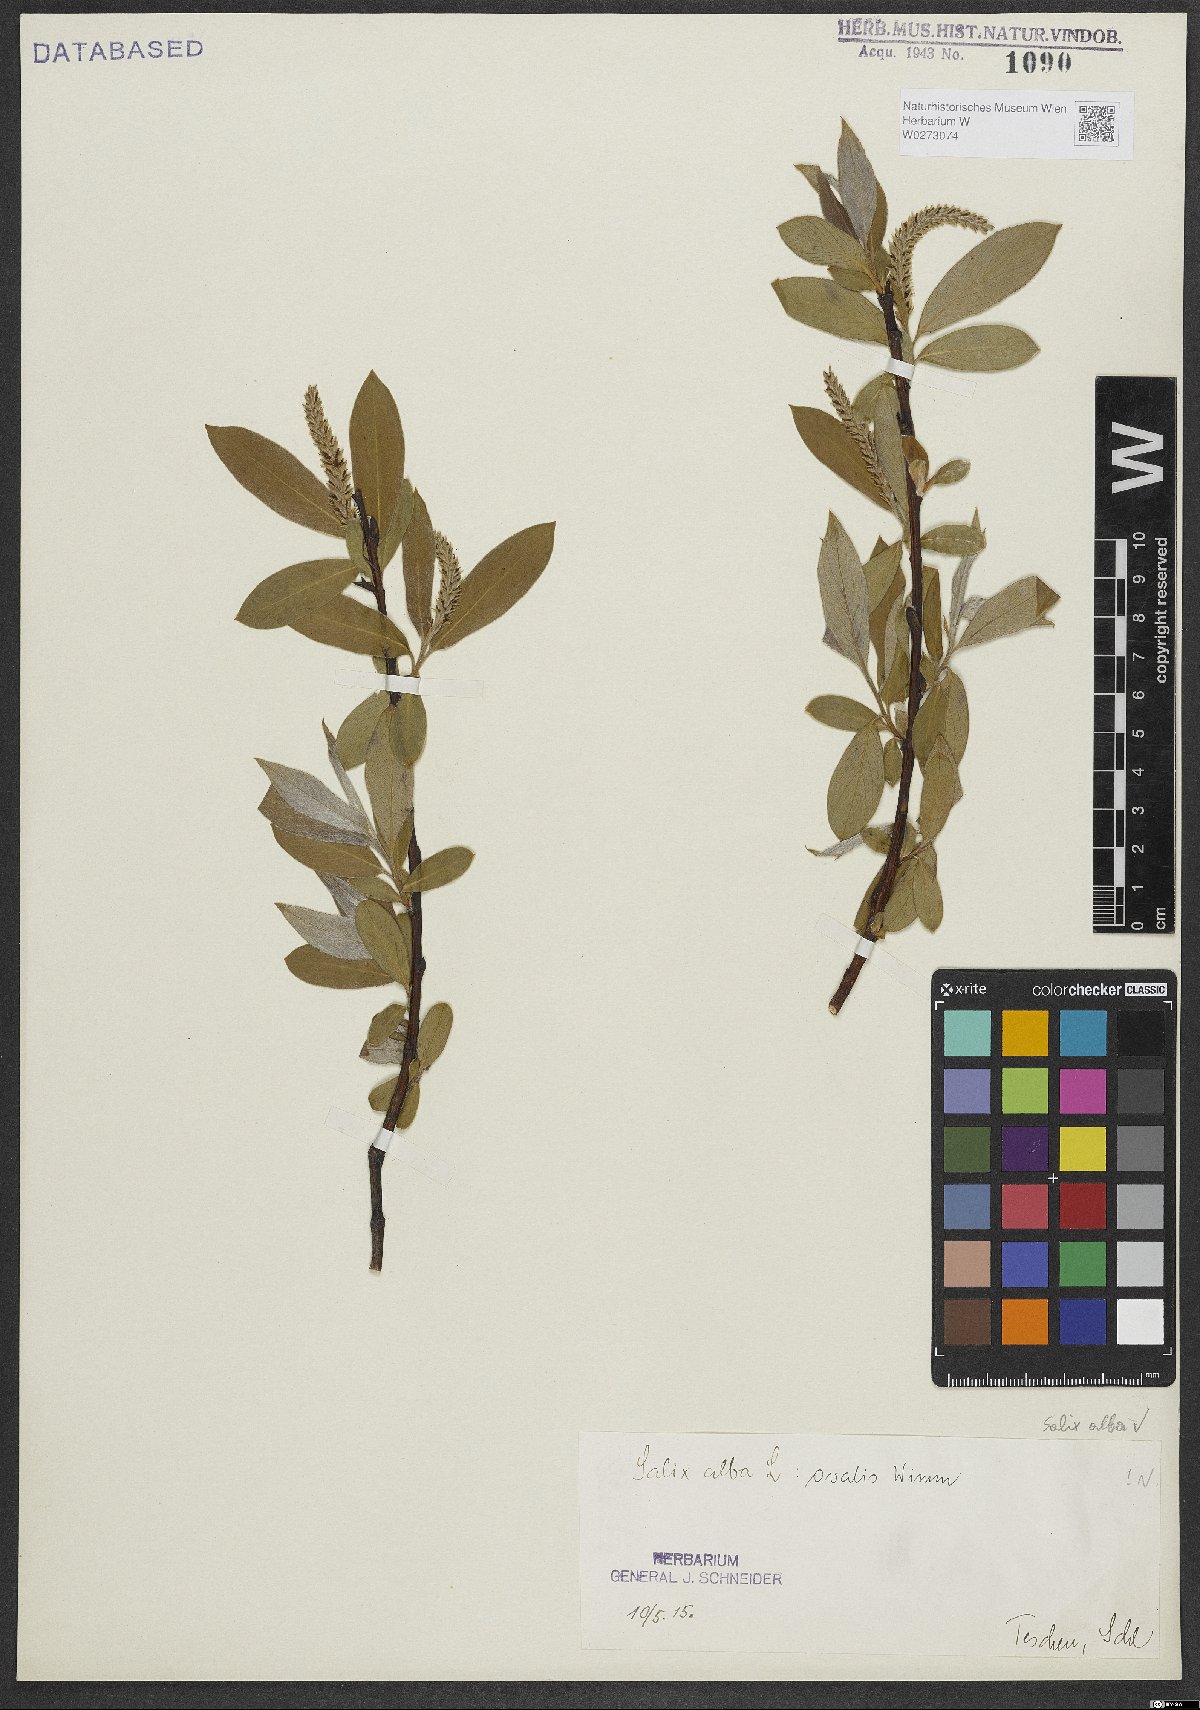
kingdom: Plantae
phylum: Tracheophyta
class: Magnoliopsida
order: Malpighiales
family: Salicaceae
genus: Salix
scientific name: Salix alba
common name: White willow
